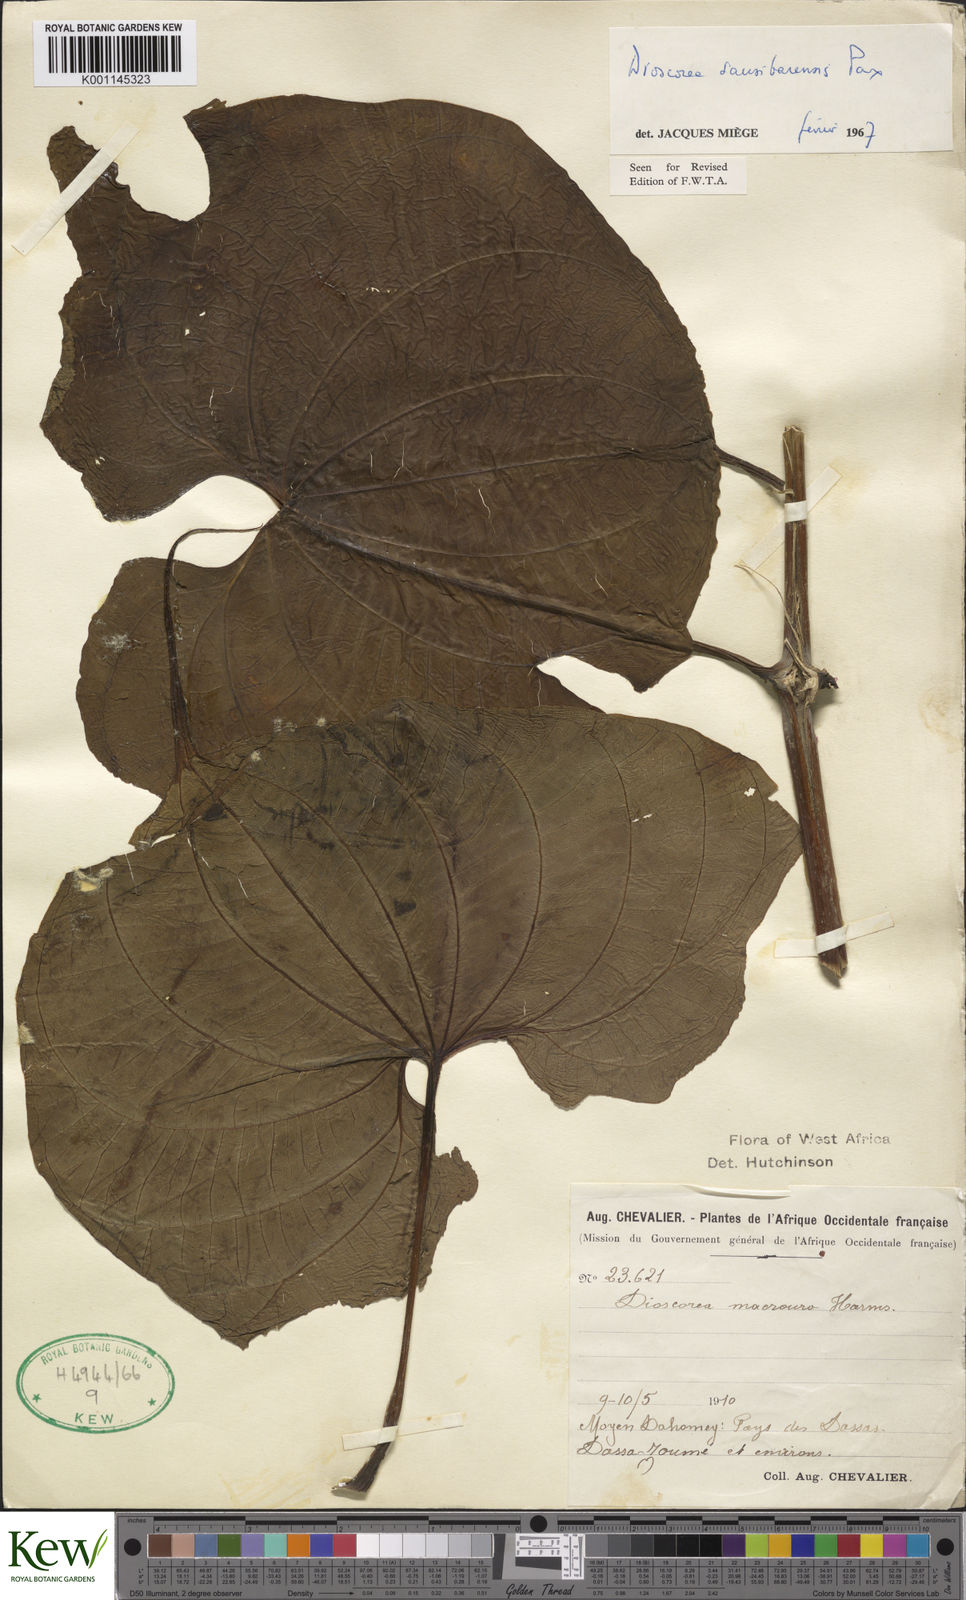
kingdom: Plantae
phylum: Tracheophyta
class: Liliopsida
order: Dioscoreales
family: Dioscoreaceae
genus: Dioscorea
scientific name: Dioscorea sansibarensis
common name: Zanzibar yam
